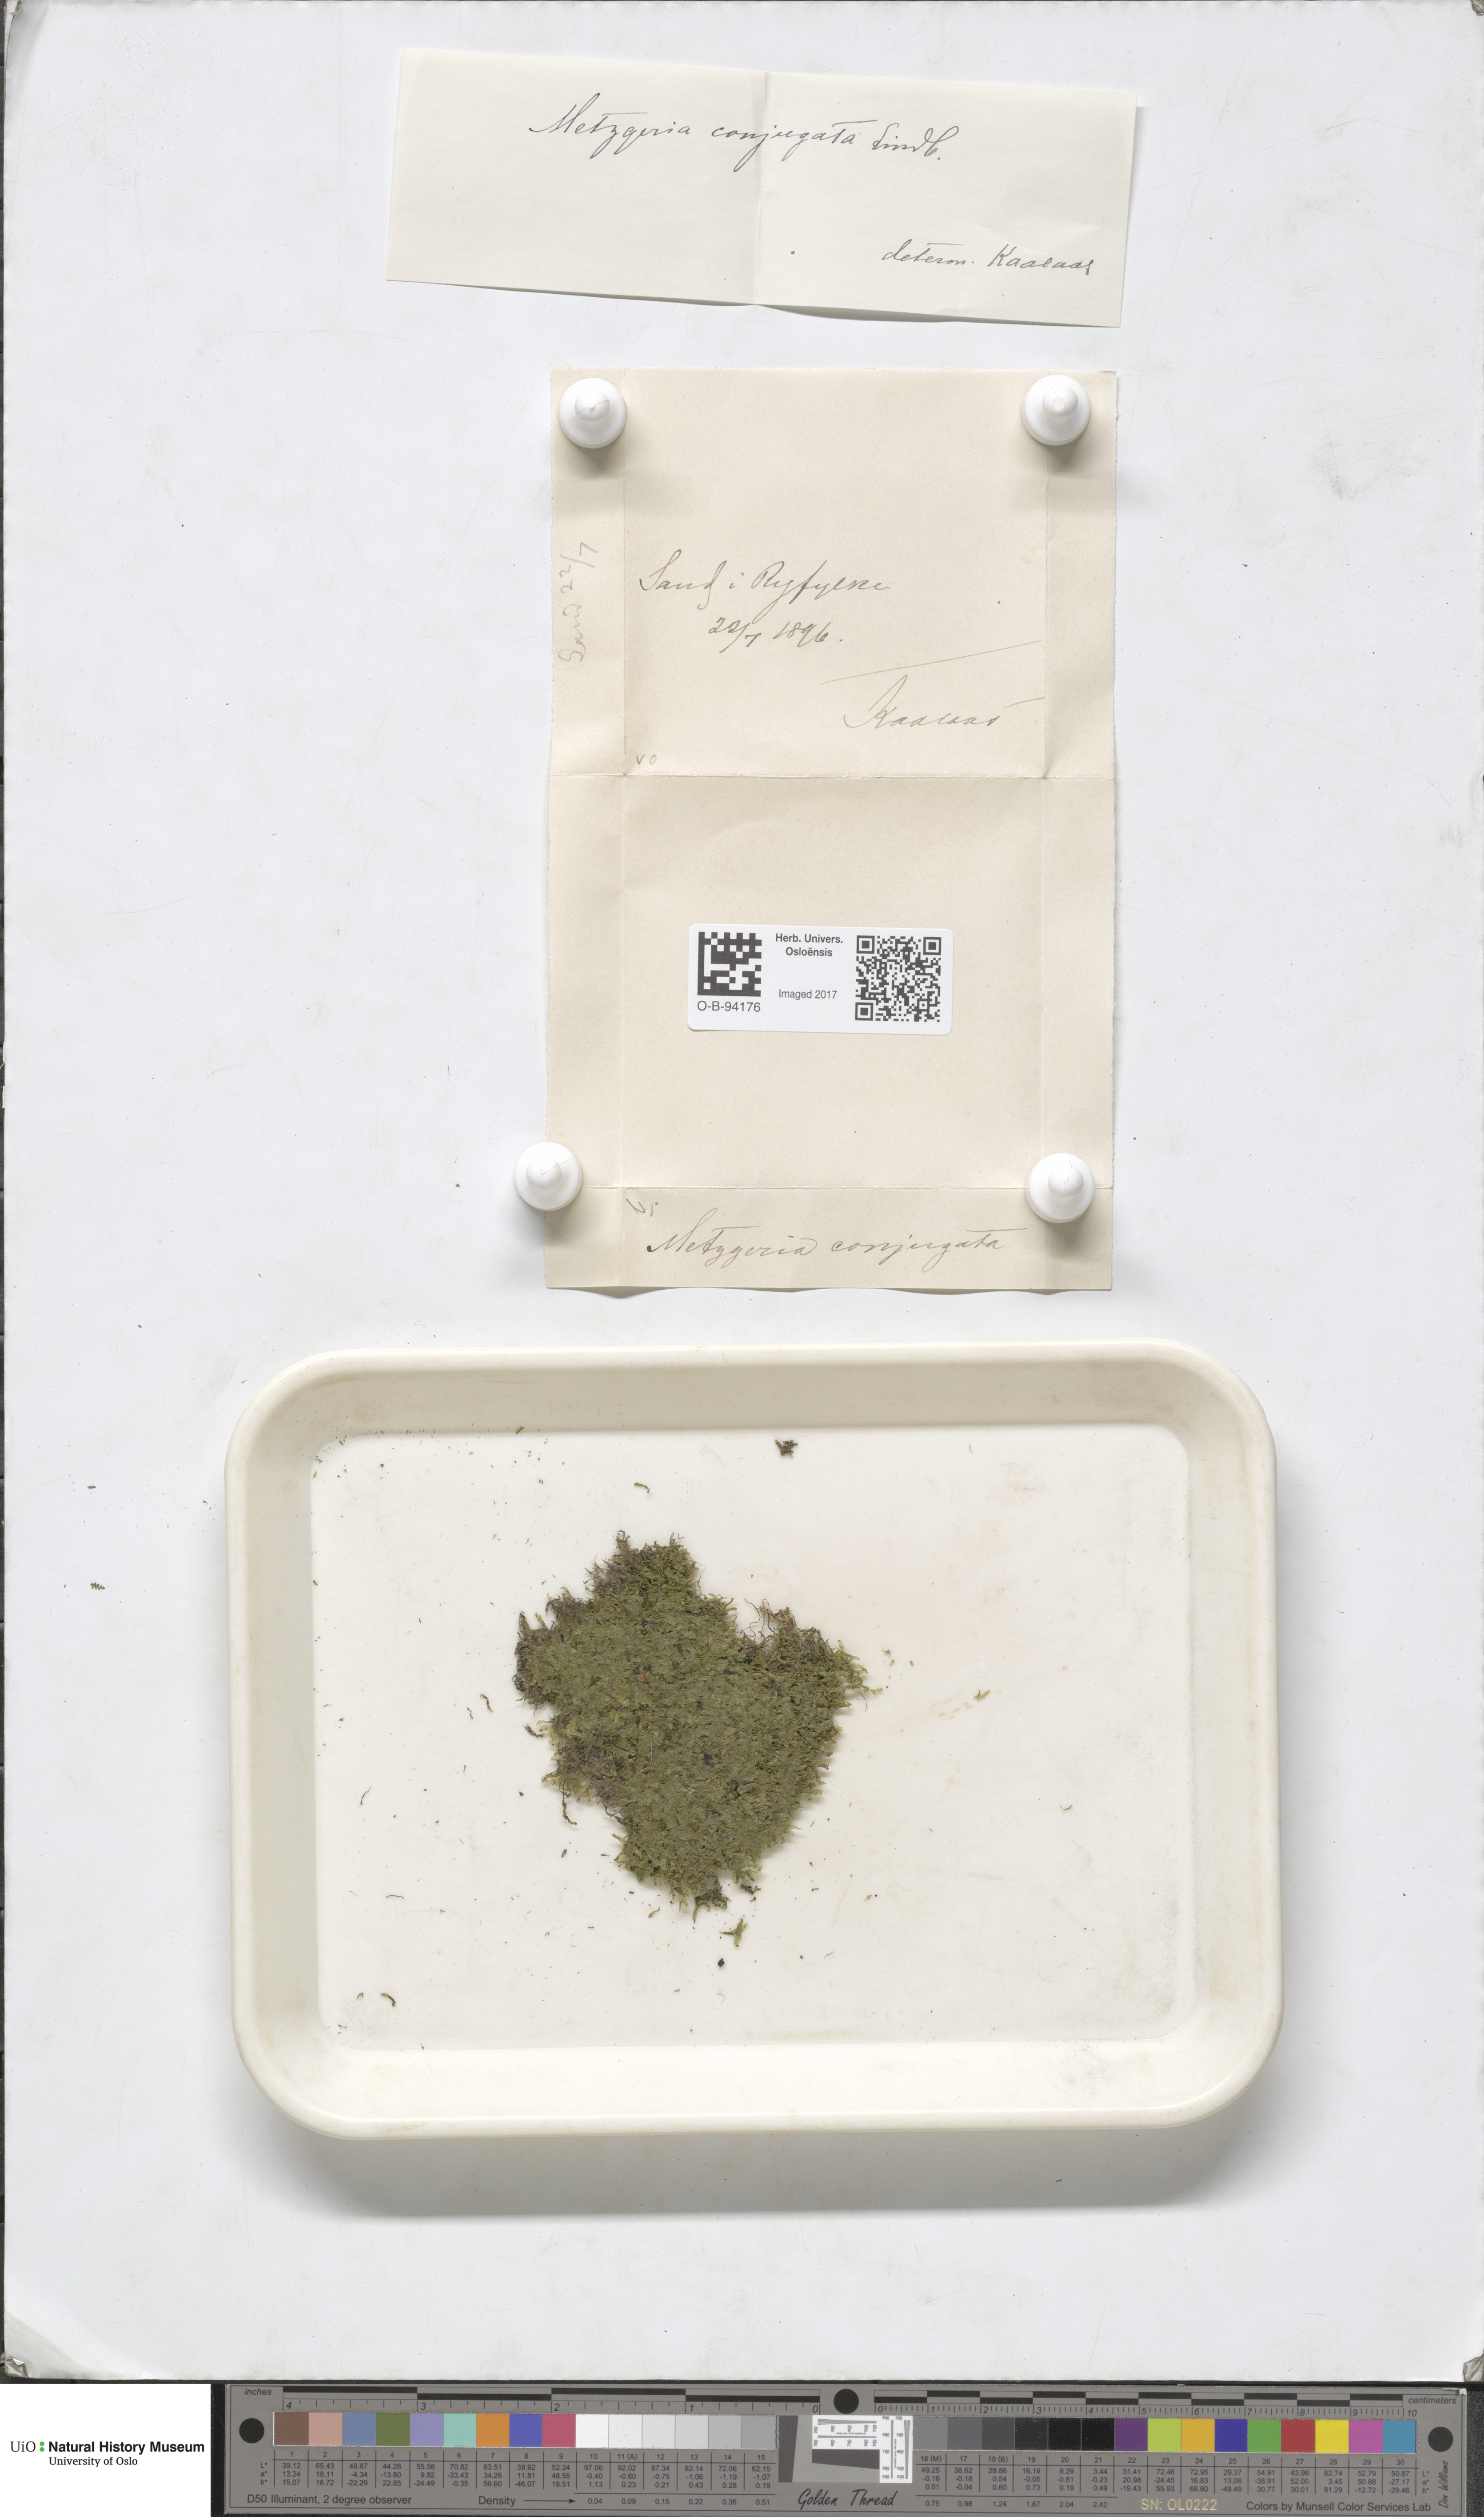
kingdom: Plantae
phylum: Marchantiophyta
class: Jungermanniopsida
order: Metzgeriales
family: Metzgeriaceae
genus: Metzgeria
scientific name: Metzgeria conjugata
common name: Rock veilwort
